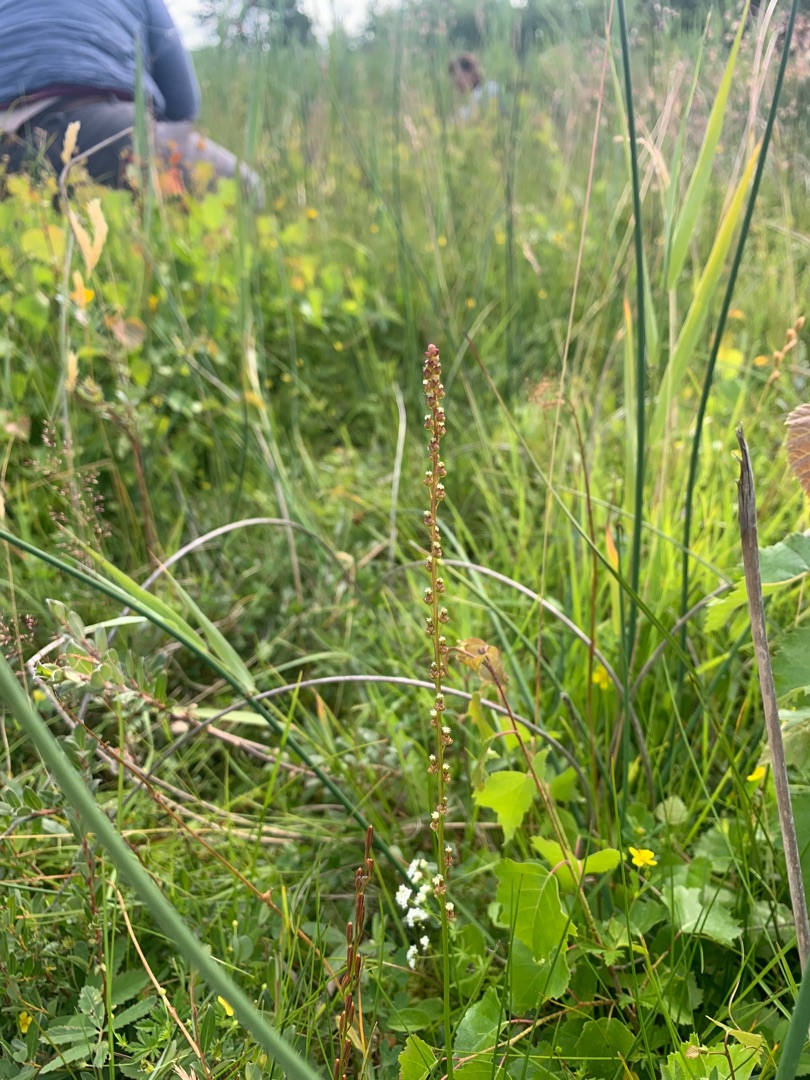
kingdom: Plantae
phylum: Tracheophyta
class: Liliopsida
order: Alismatales
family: Juncaginaceae
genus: Triglochin
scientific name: Triglochin palustris
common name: Kær-trehage
